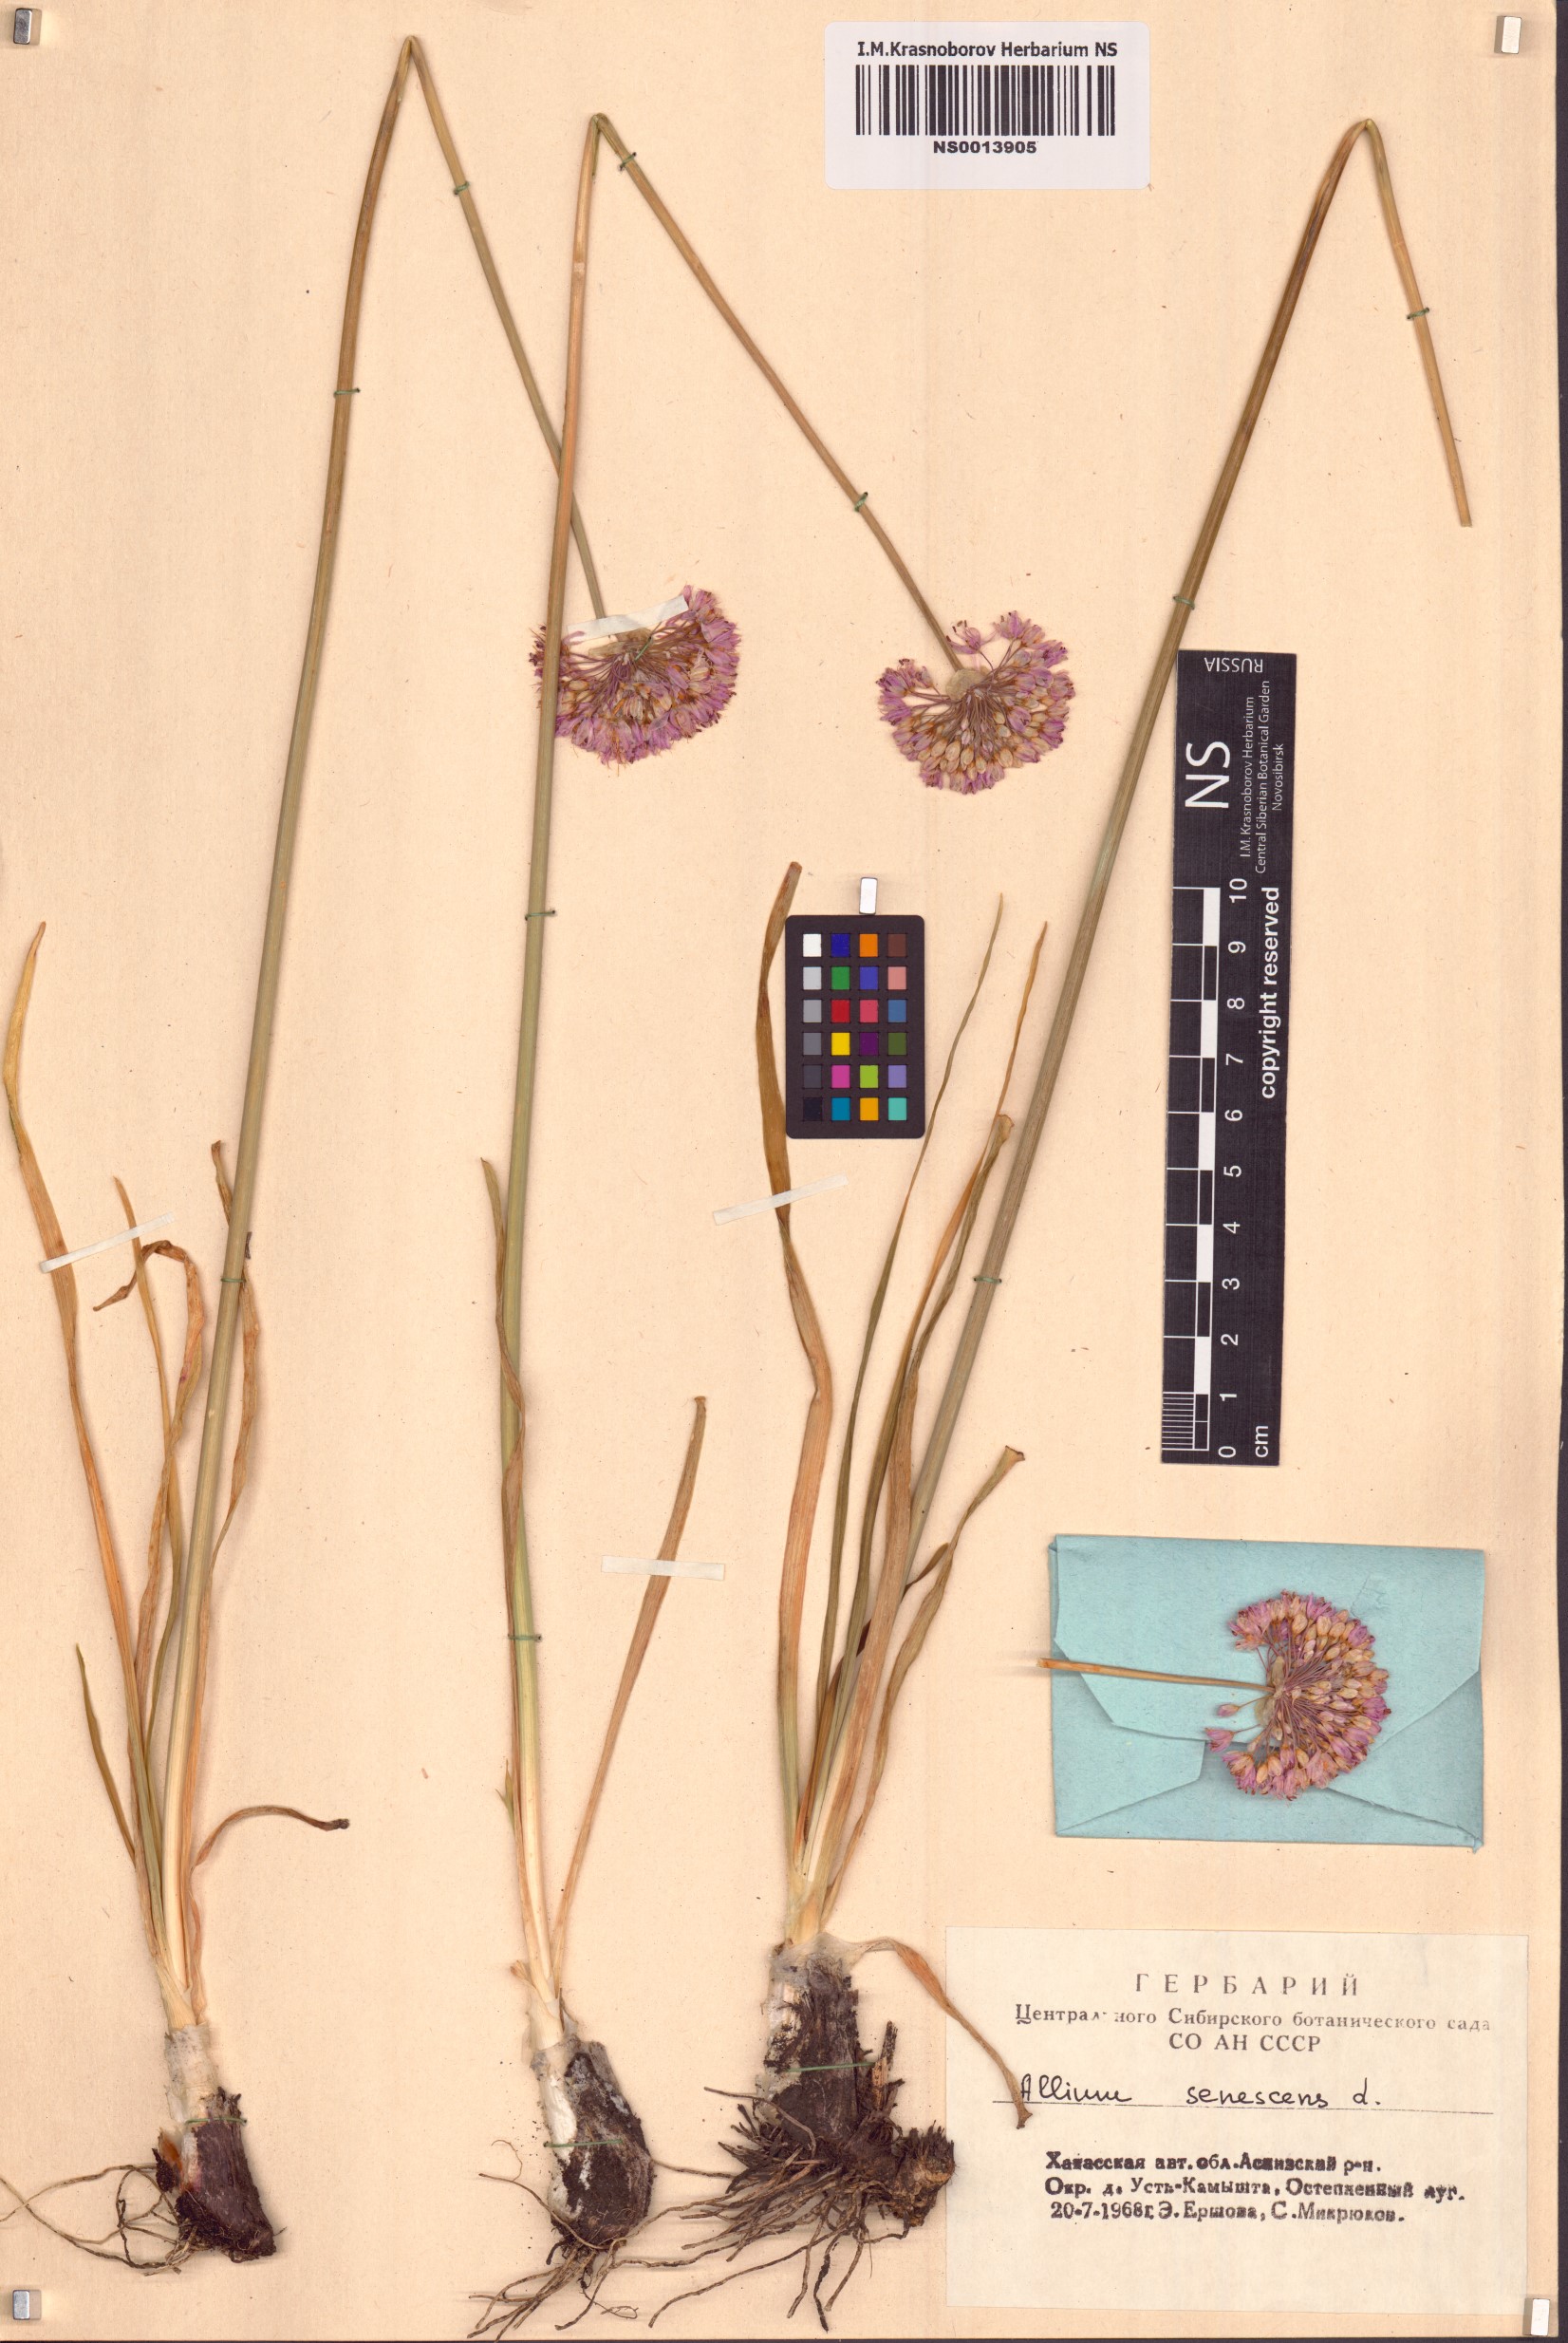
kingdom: Plantae
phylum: Tracheophyta
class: Liliopsida
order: Asparagales
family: Amaryllidaceae
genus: Allium
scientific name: Allium senescens
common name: German garlic
